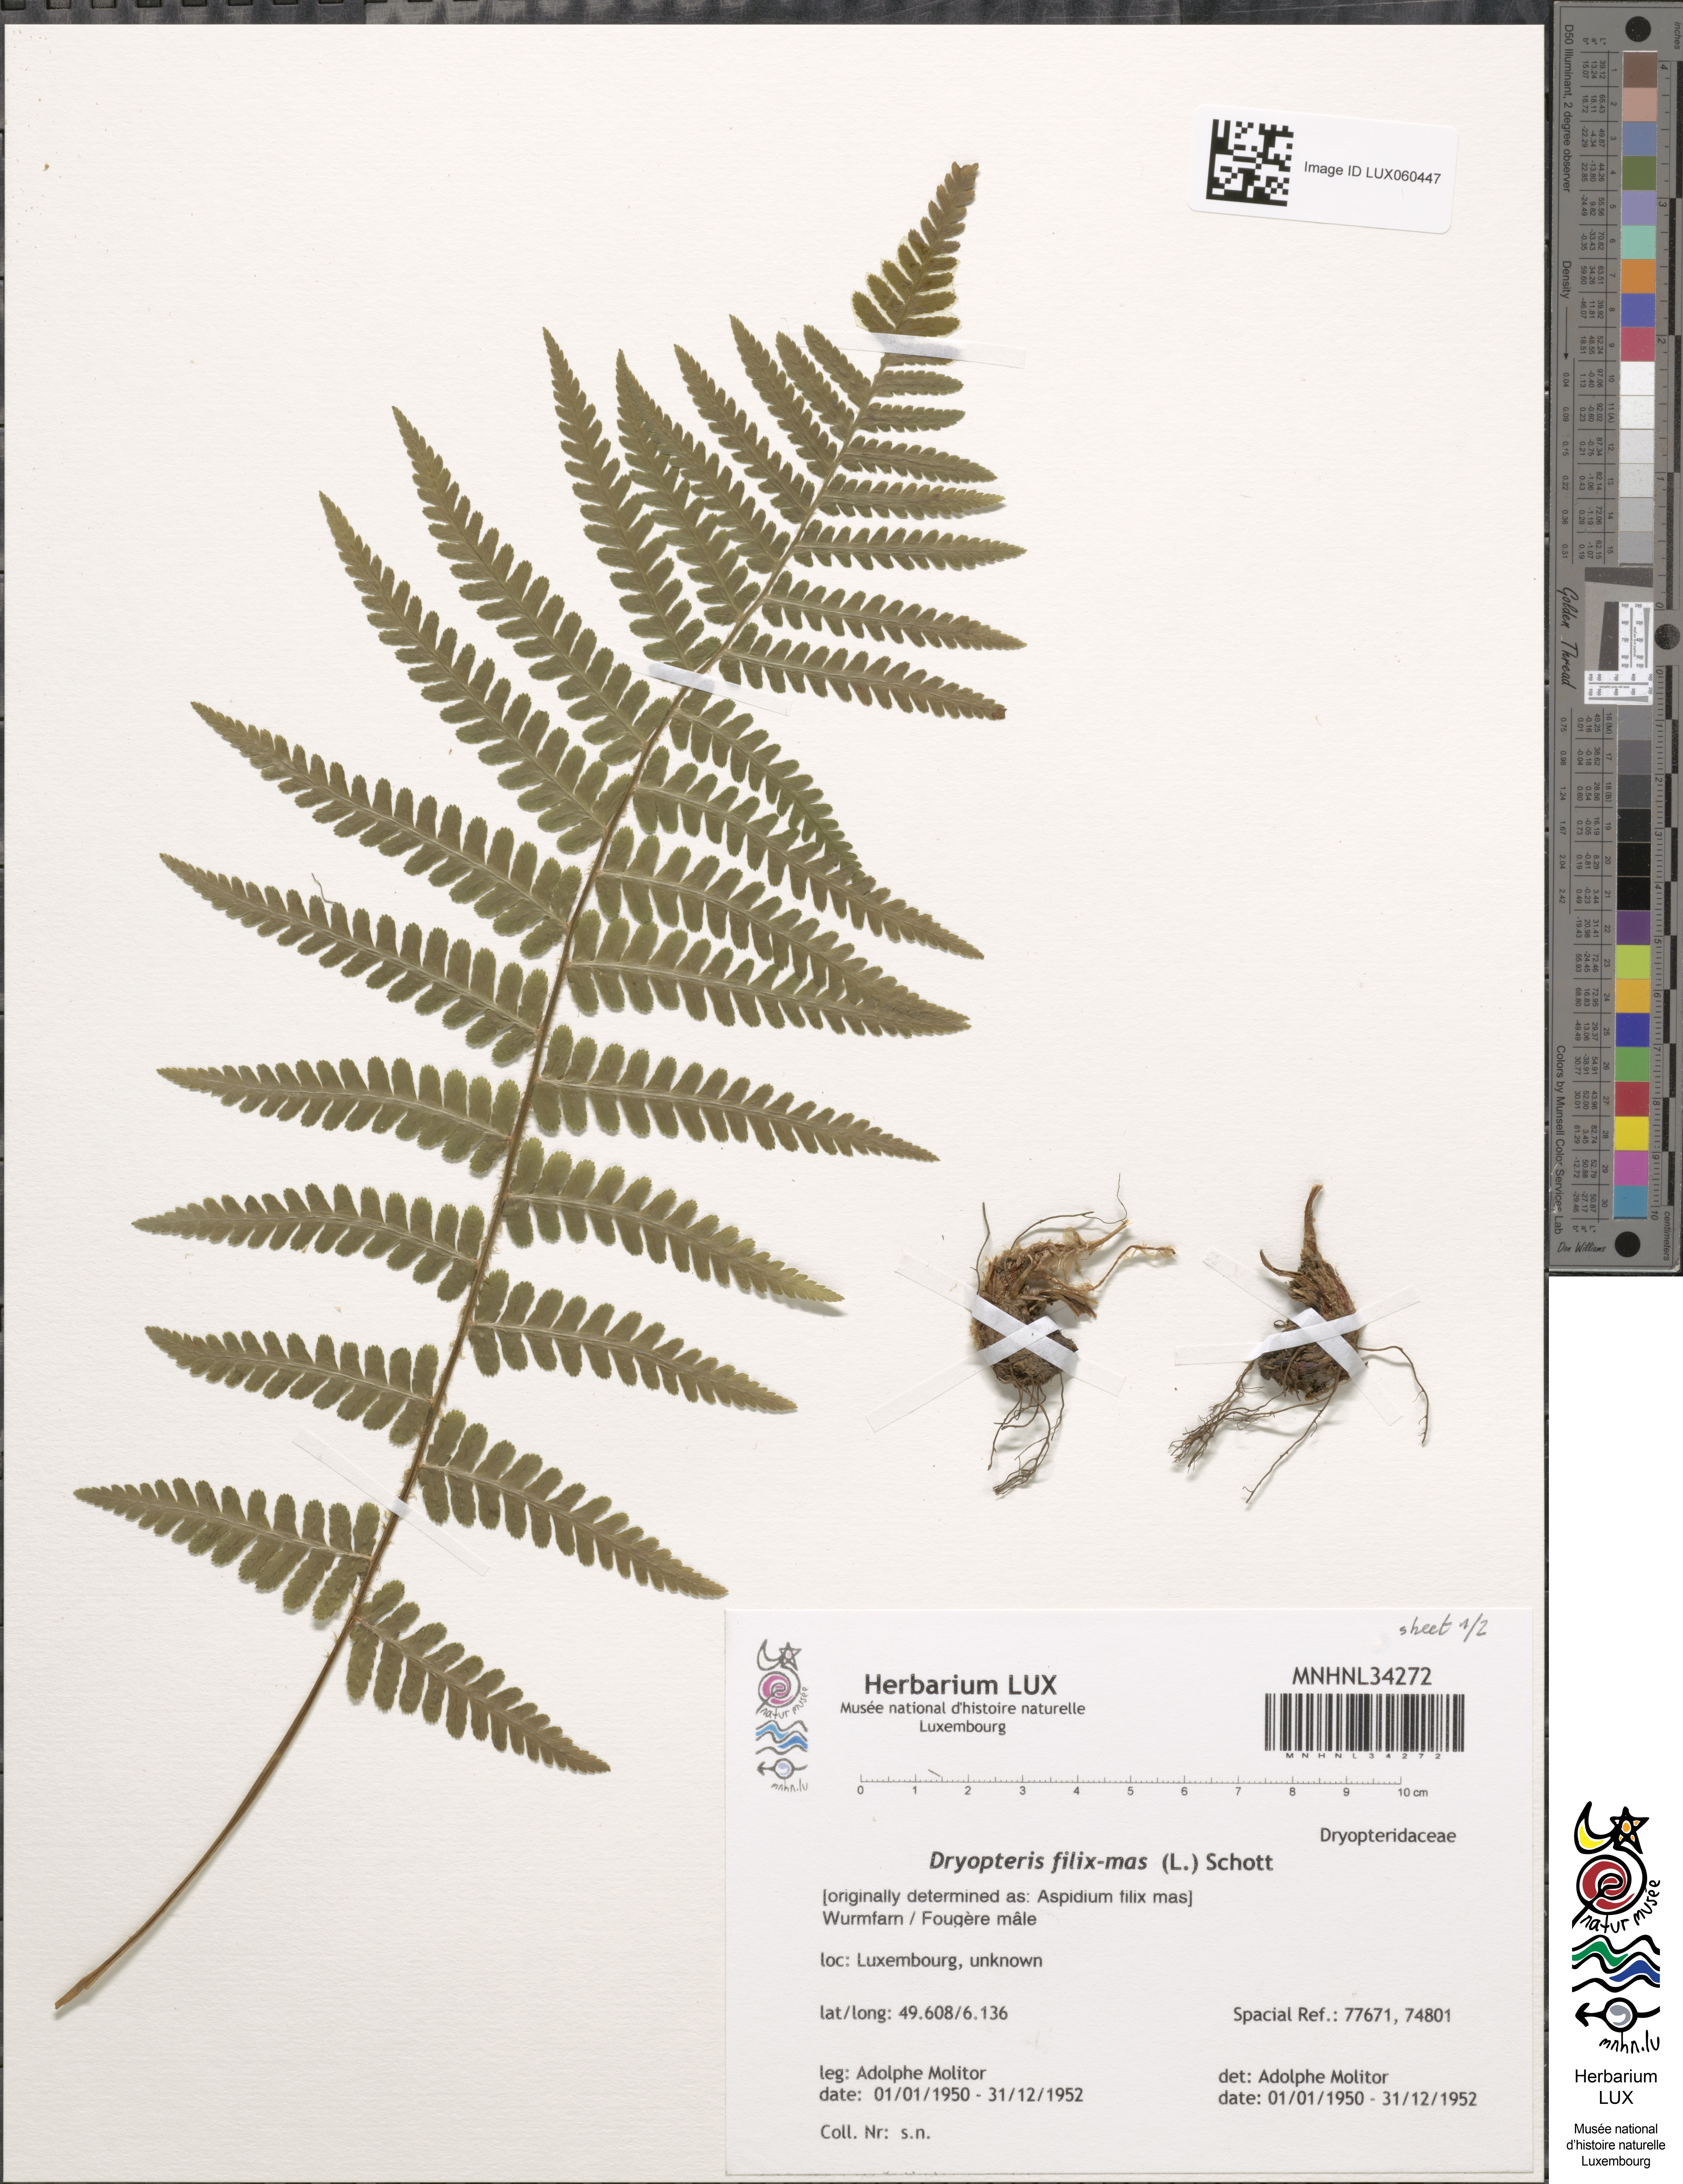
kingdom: Plantae
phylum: Tracheophyta
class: Polypodiopsida
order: Polypodiales
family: Dryopteridaceae
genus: Dryopteris
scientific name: Dryopteris filix-mas
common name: Male fern
